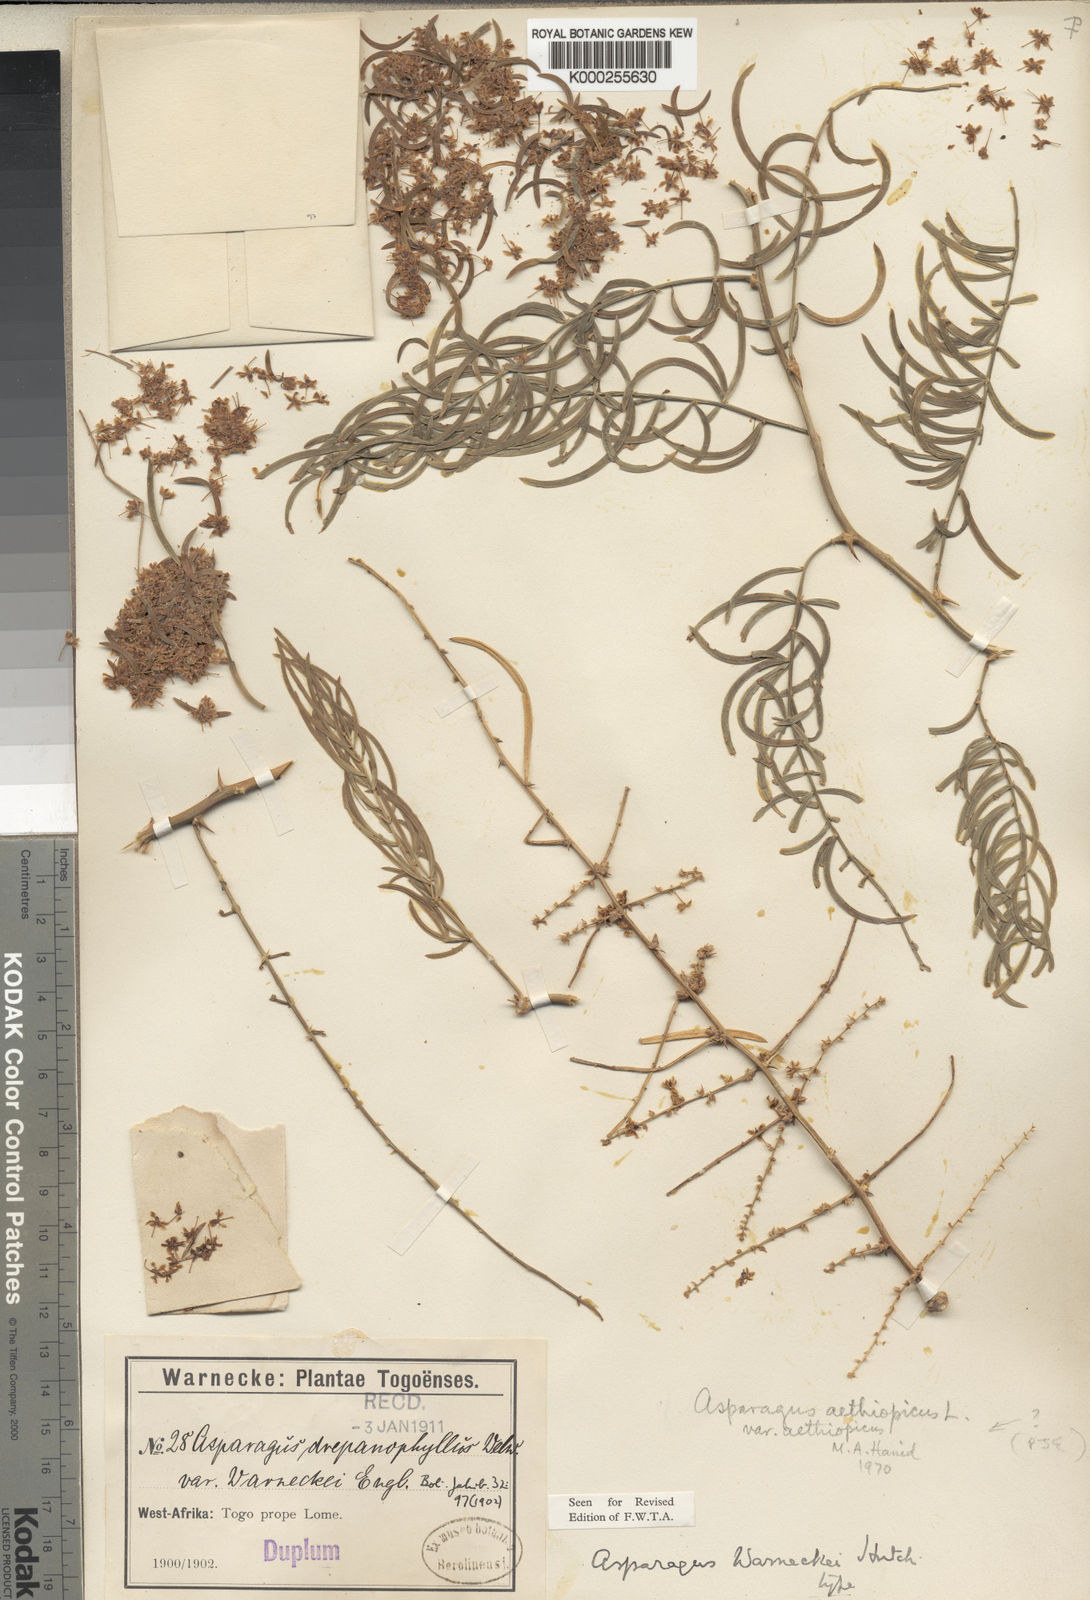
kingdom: Plantae
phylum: Tracheophyta
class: Liliopsida
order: Asparagales
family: Asparagaceae
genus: Asparagus
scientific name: Asparagus warneckei
